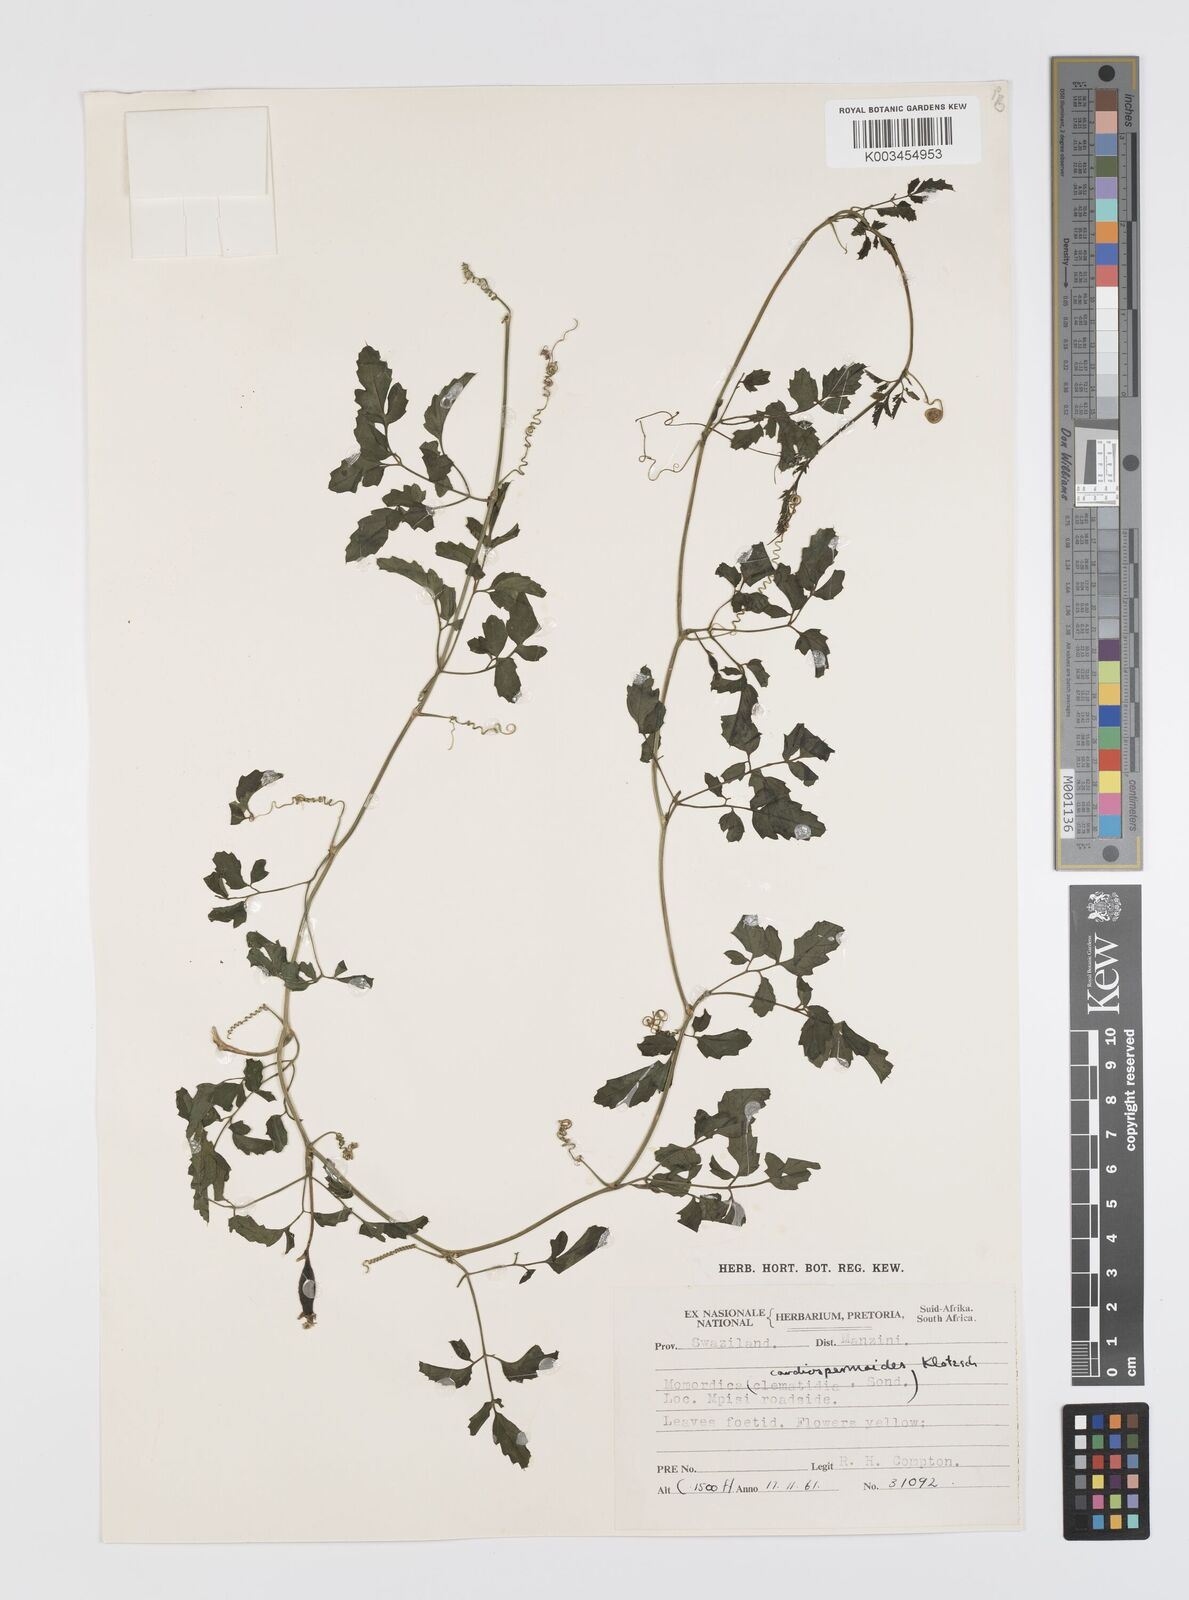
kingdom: Plantae
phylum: Tracheophyta
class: Magnoliopsida
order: Cucurbitales
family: Cucurbitaceae
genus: Momordica
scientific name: Momordica cardiospermoides
